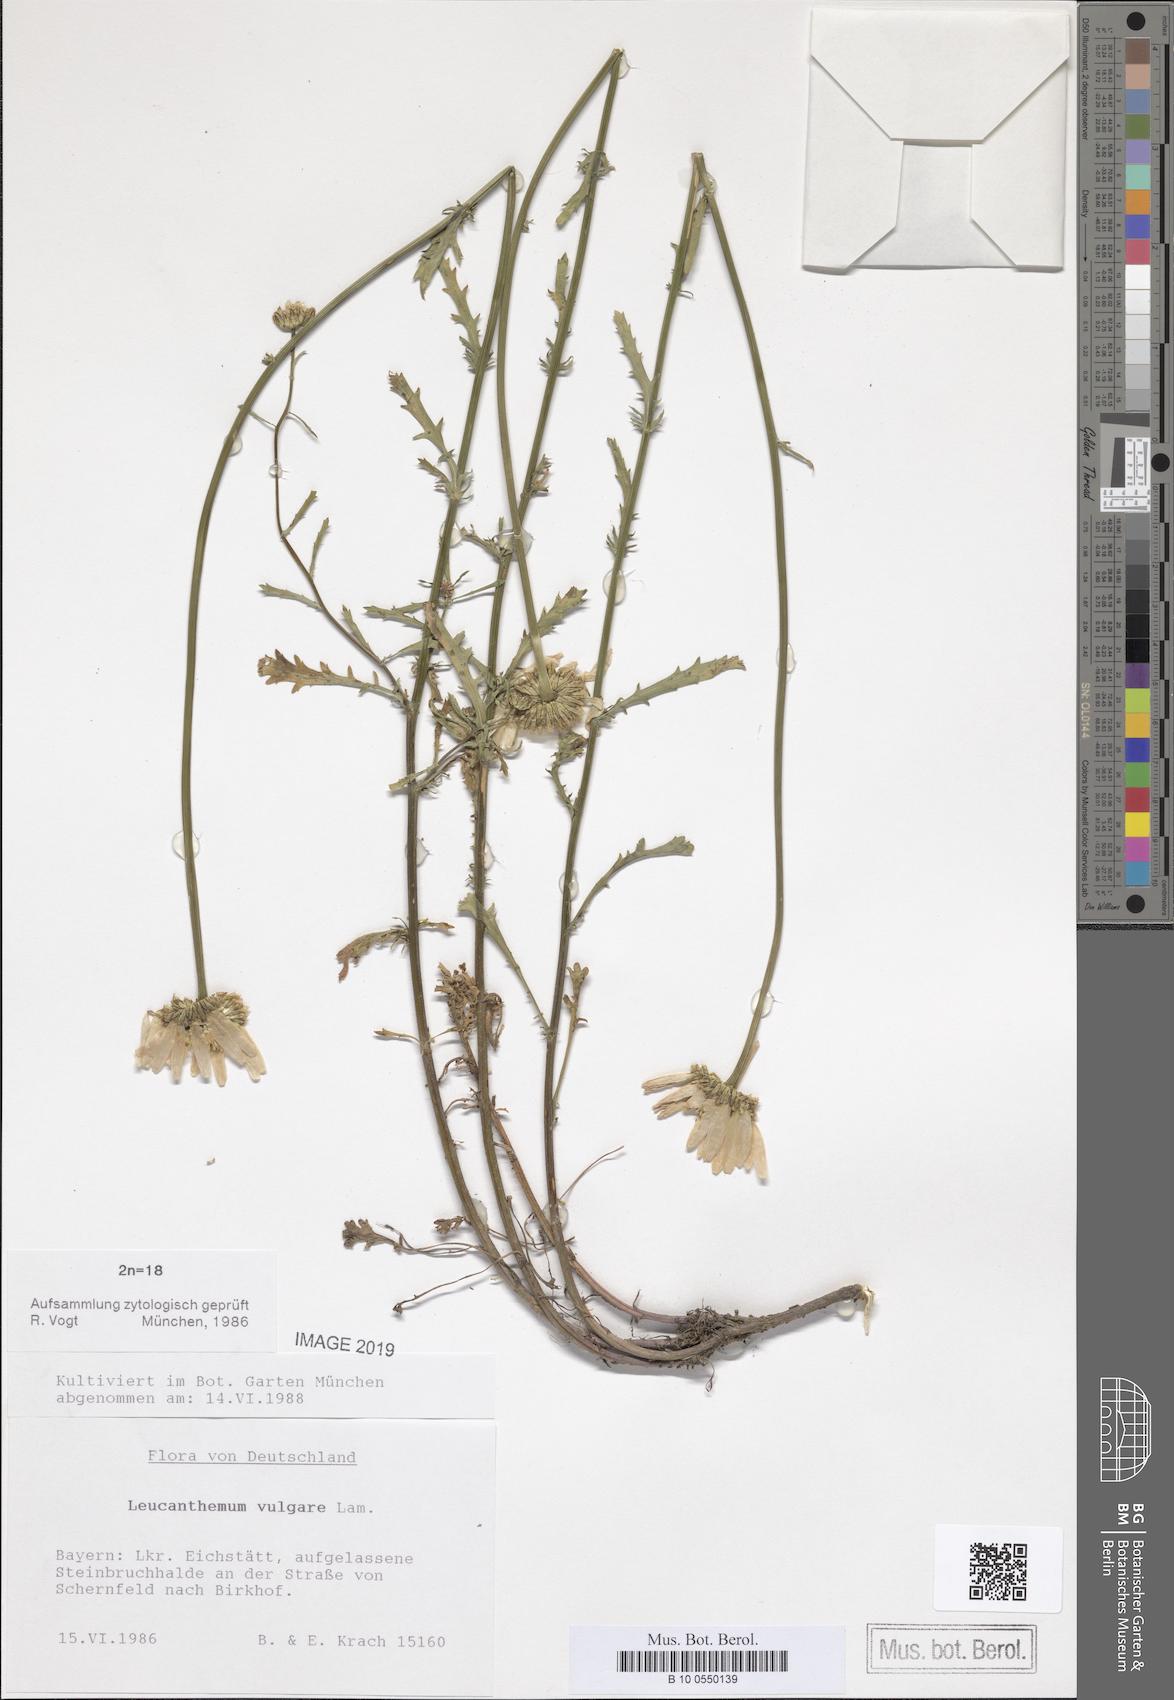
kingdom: Plantae
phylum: Tracheophyta
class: Magnoliopsida
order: Asterales
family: Asteraceae
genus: Leucanthemum
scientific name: Leucanthemum vulgare
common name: Oxeye daisy
